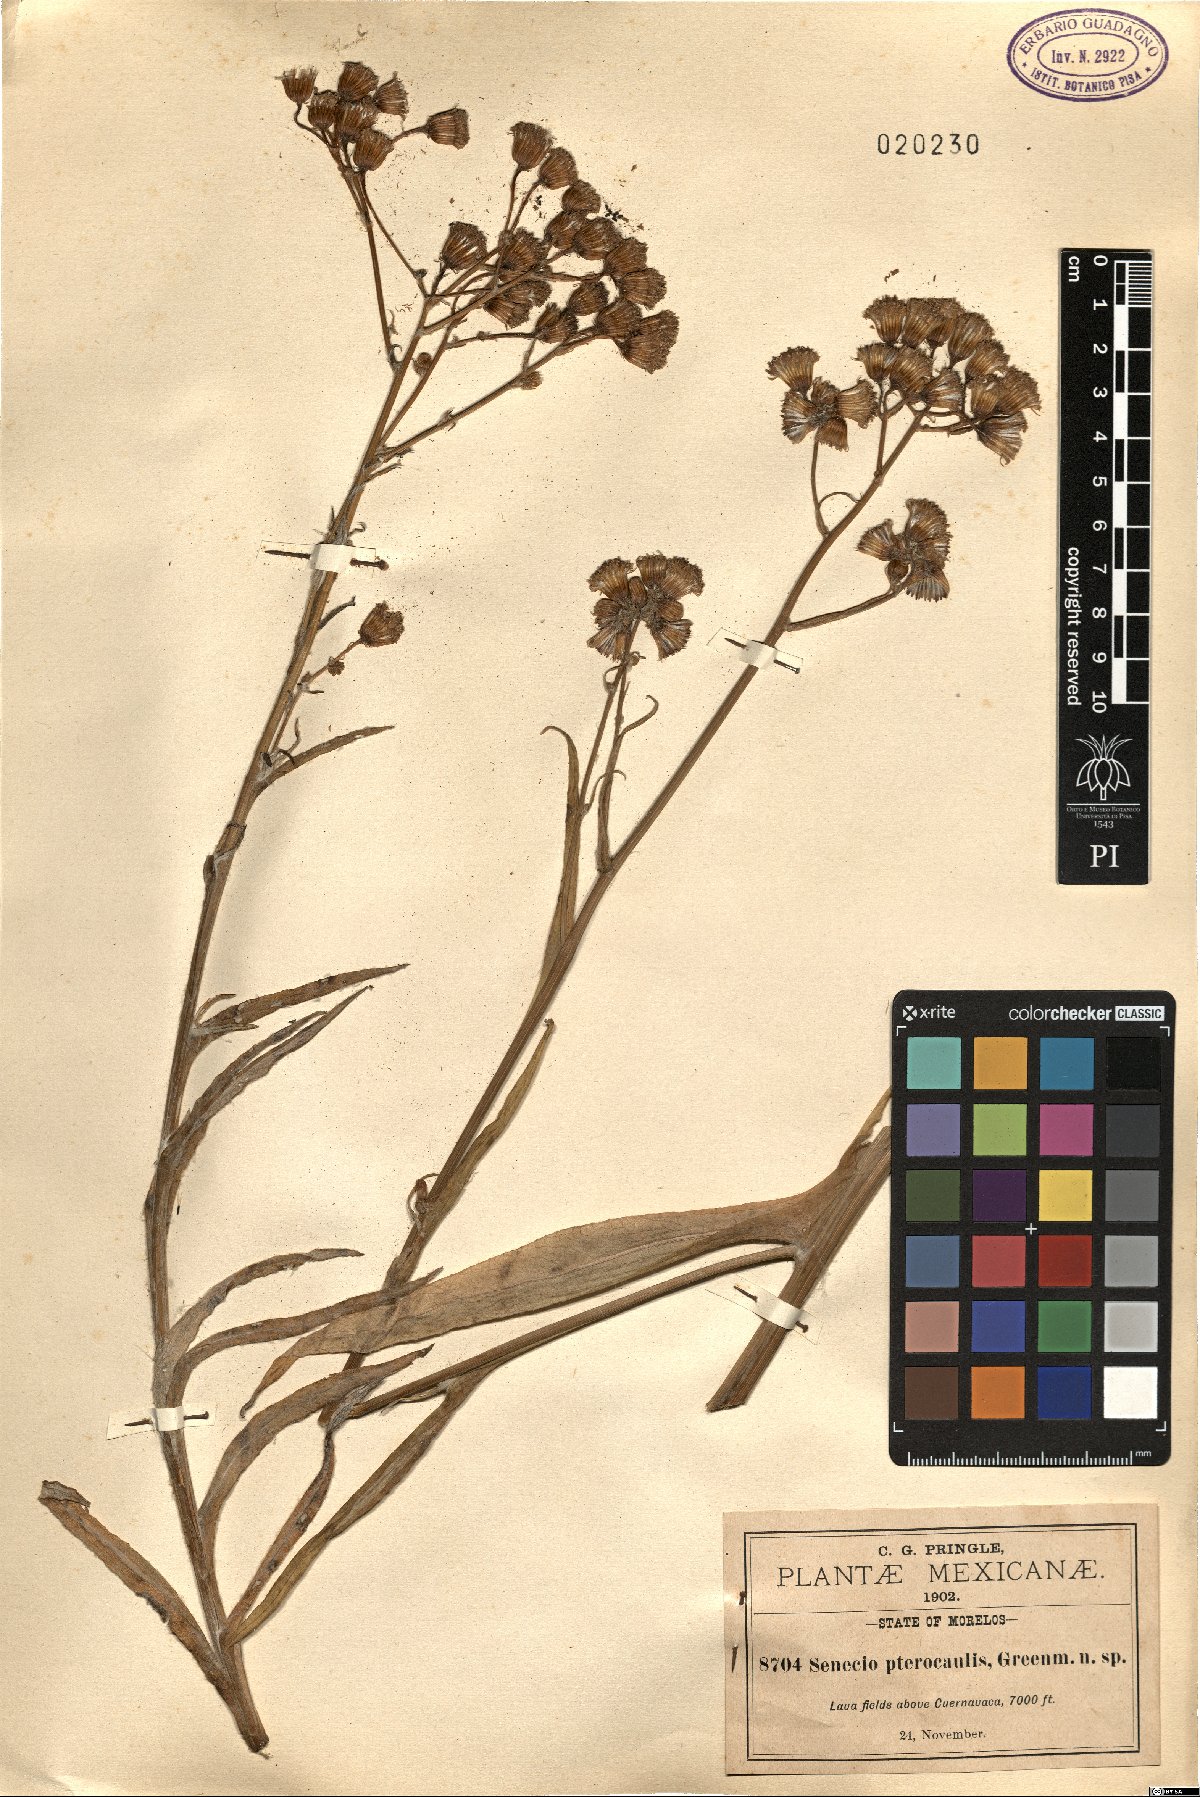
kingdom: Plantae
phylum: Tracheophyta
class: Magnoliopsida
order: Asterales
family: Asteraceae
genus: Packera
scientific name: Packera werneriifolia
